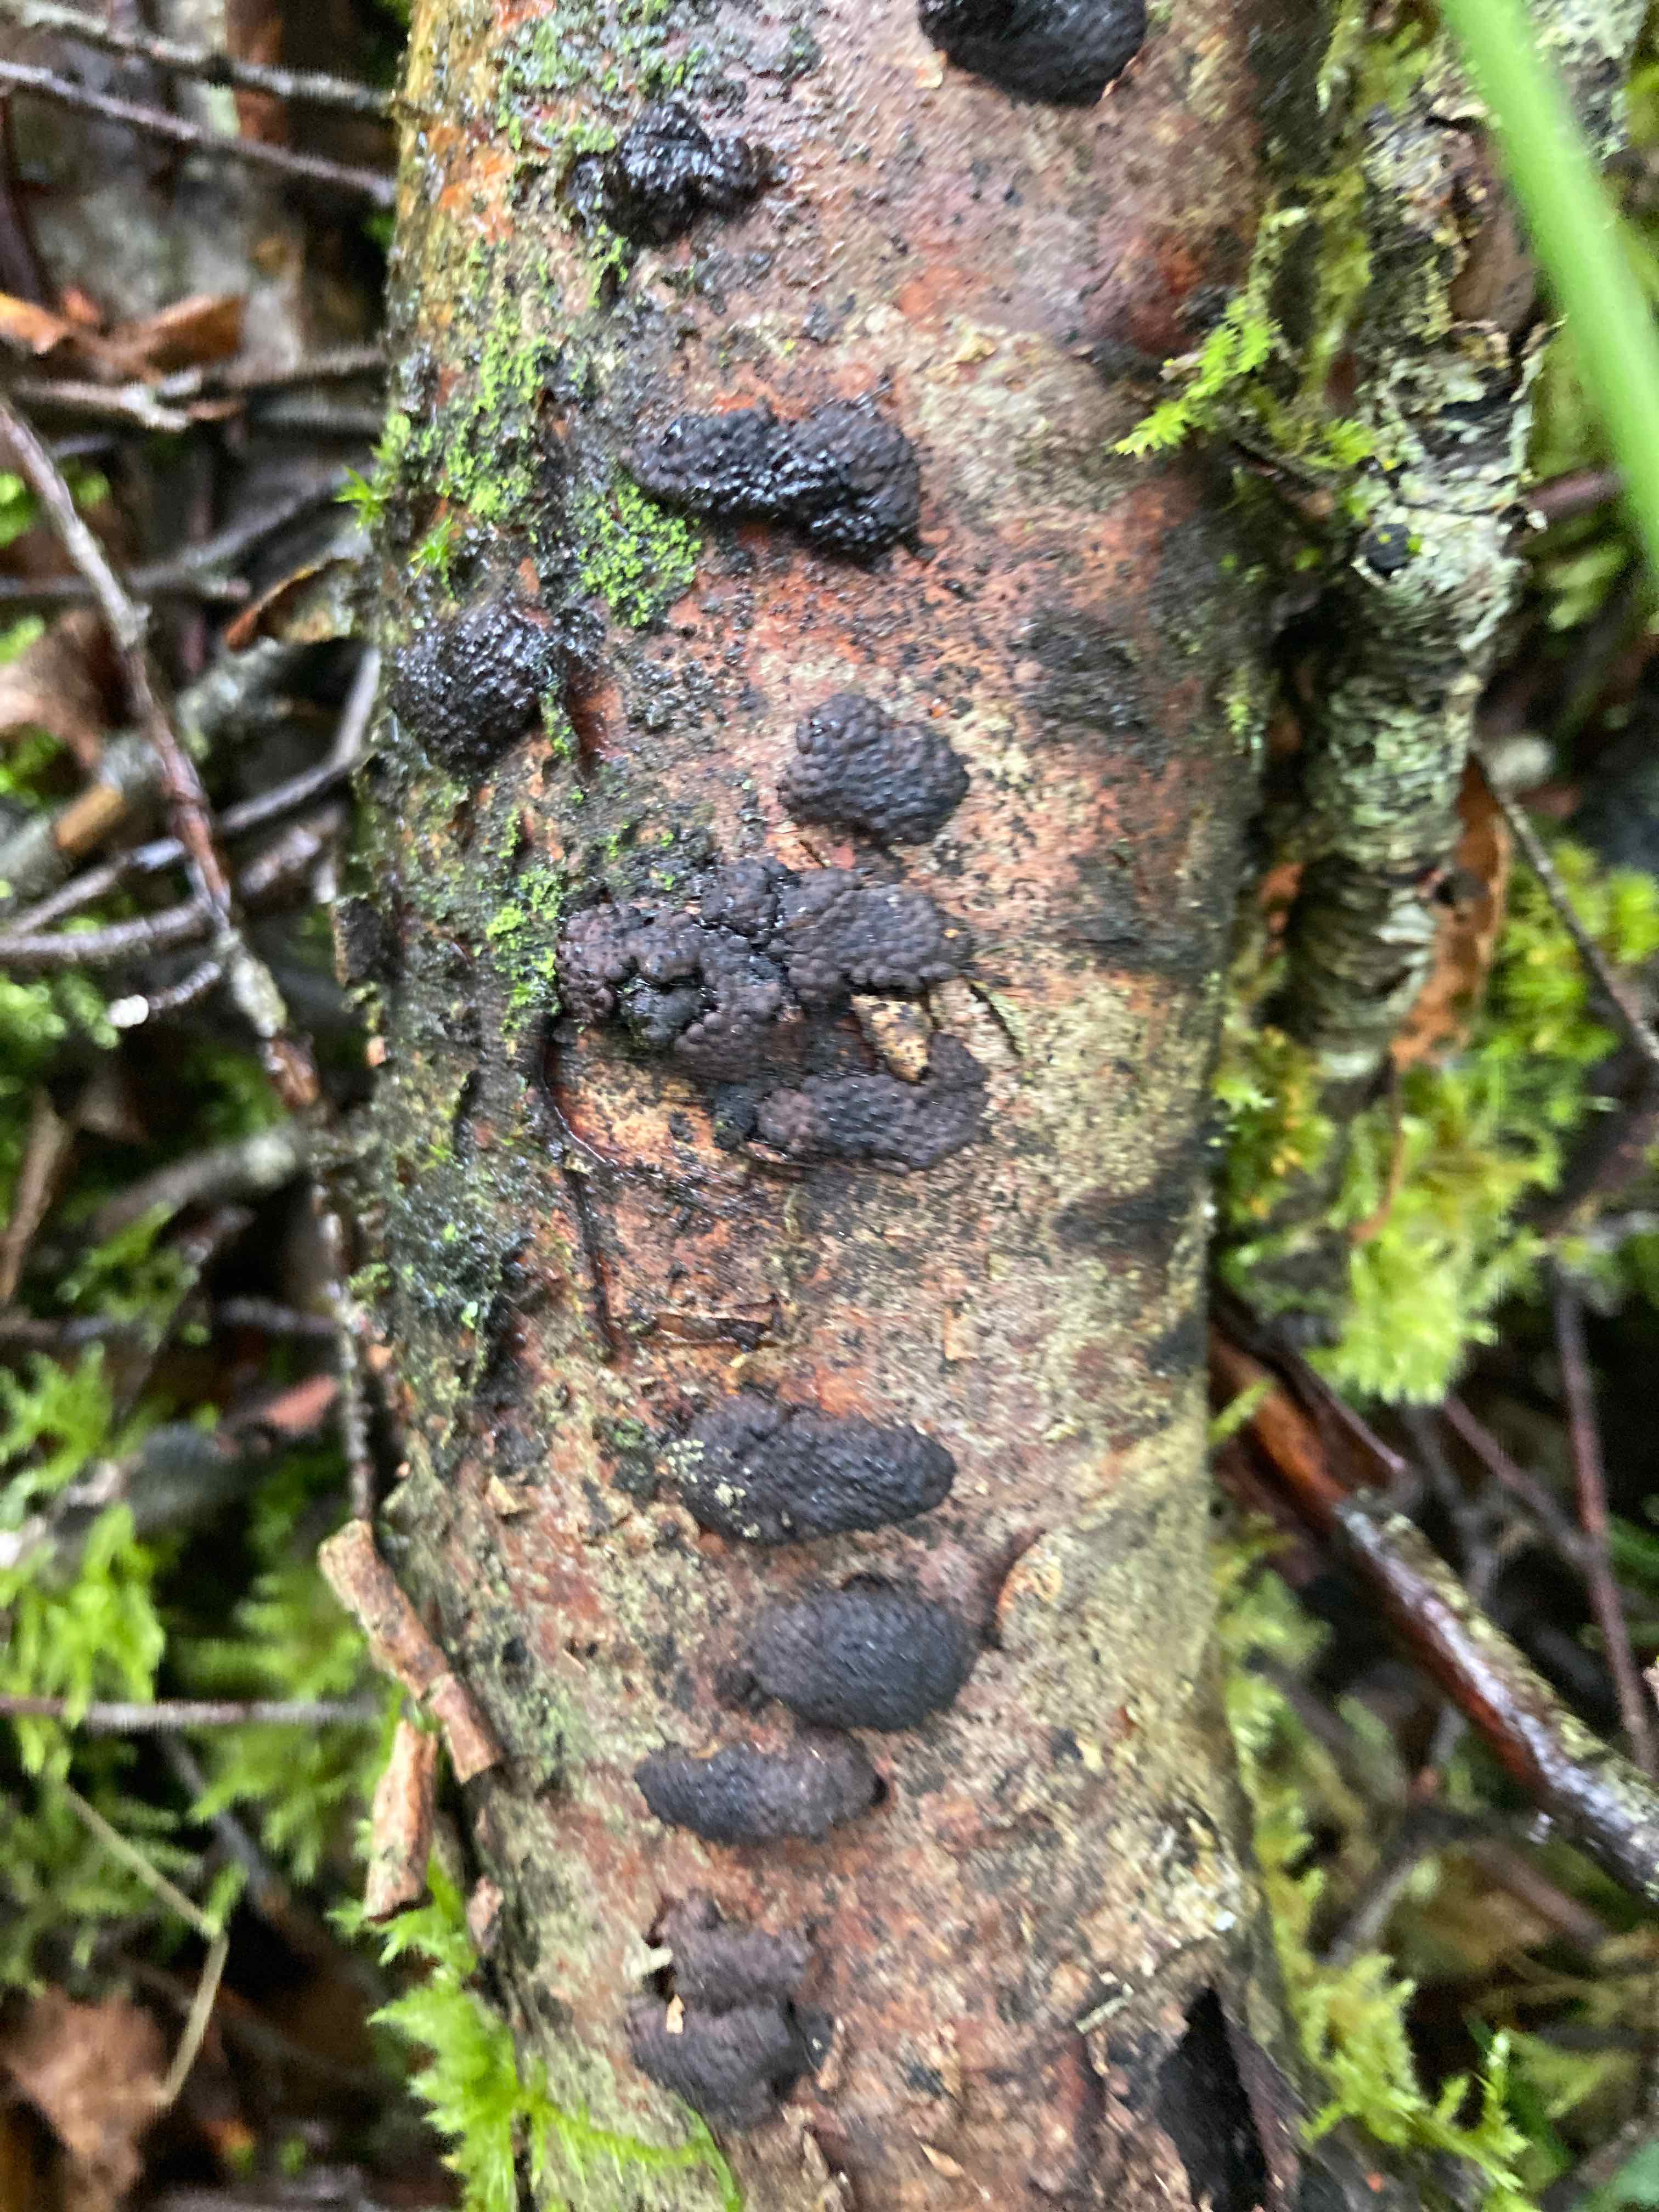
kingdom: Fungi
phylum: Ascomycota
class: Sordariomycetes
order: Xylariales
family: Hypoxylaceae
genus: Jackrogersella
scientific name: Jackrogersella multiformis
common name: foranderlig kulbær
